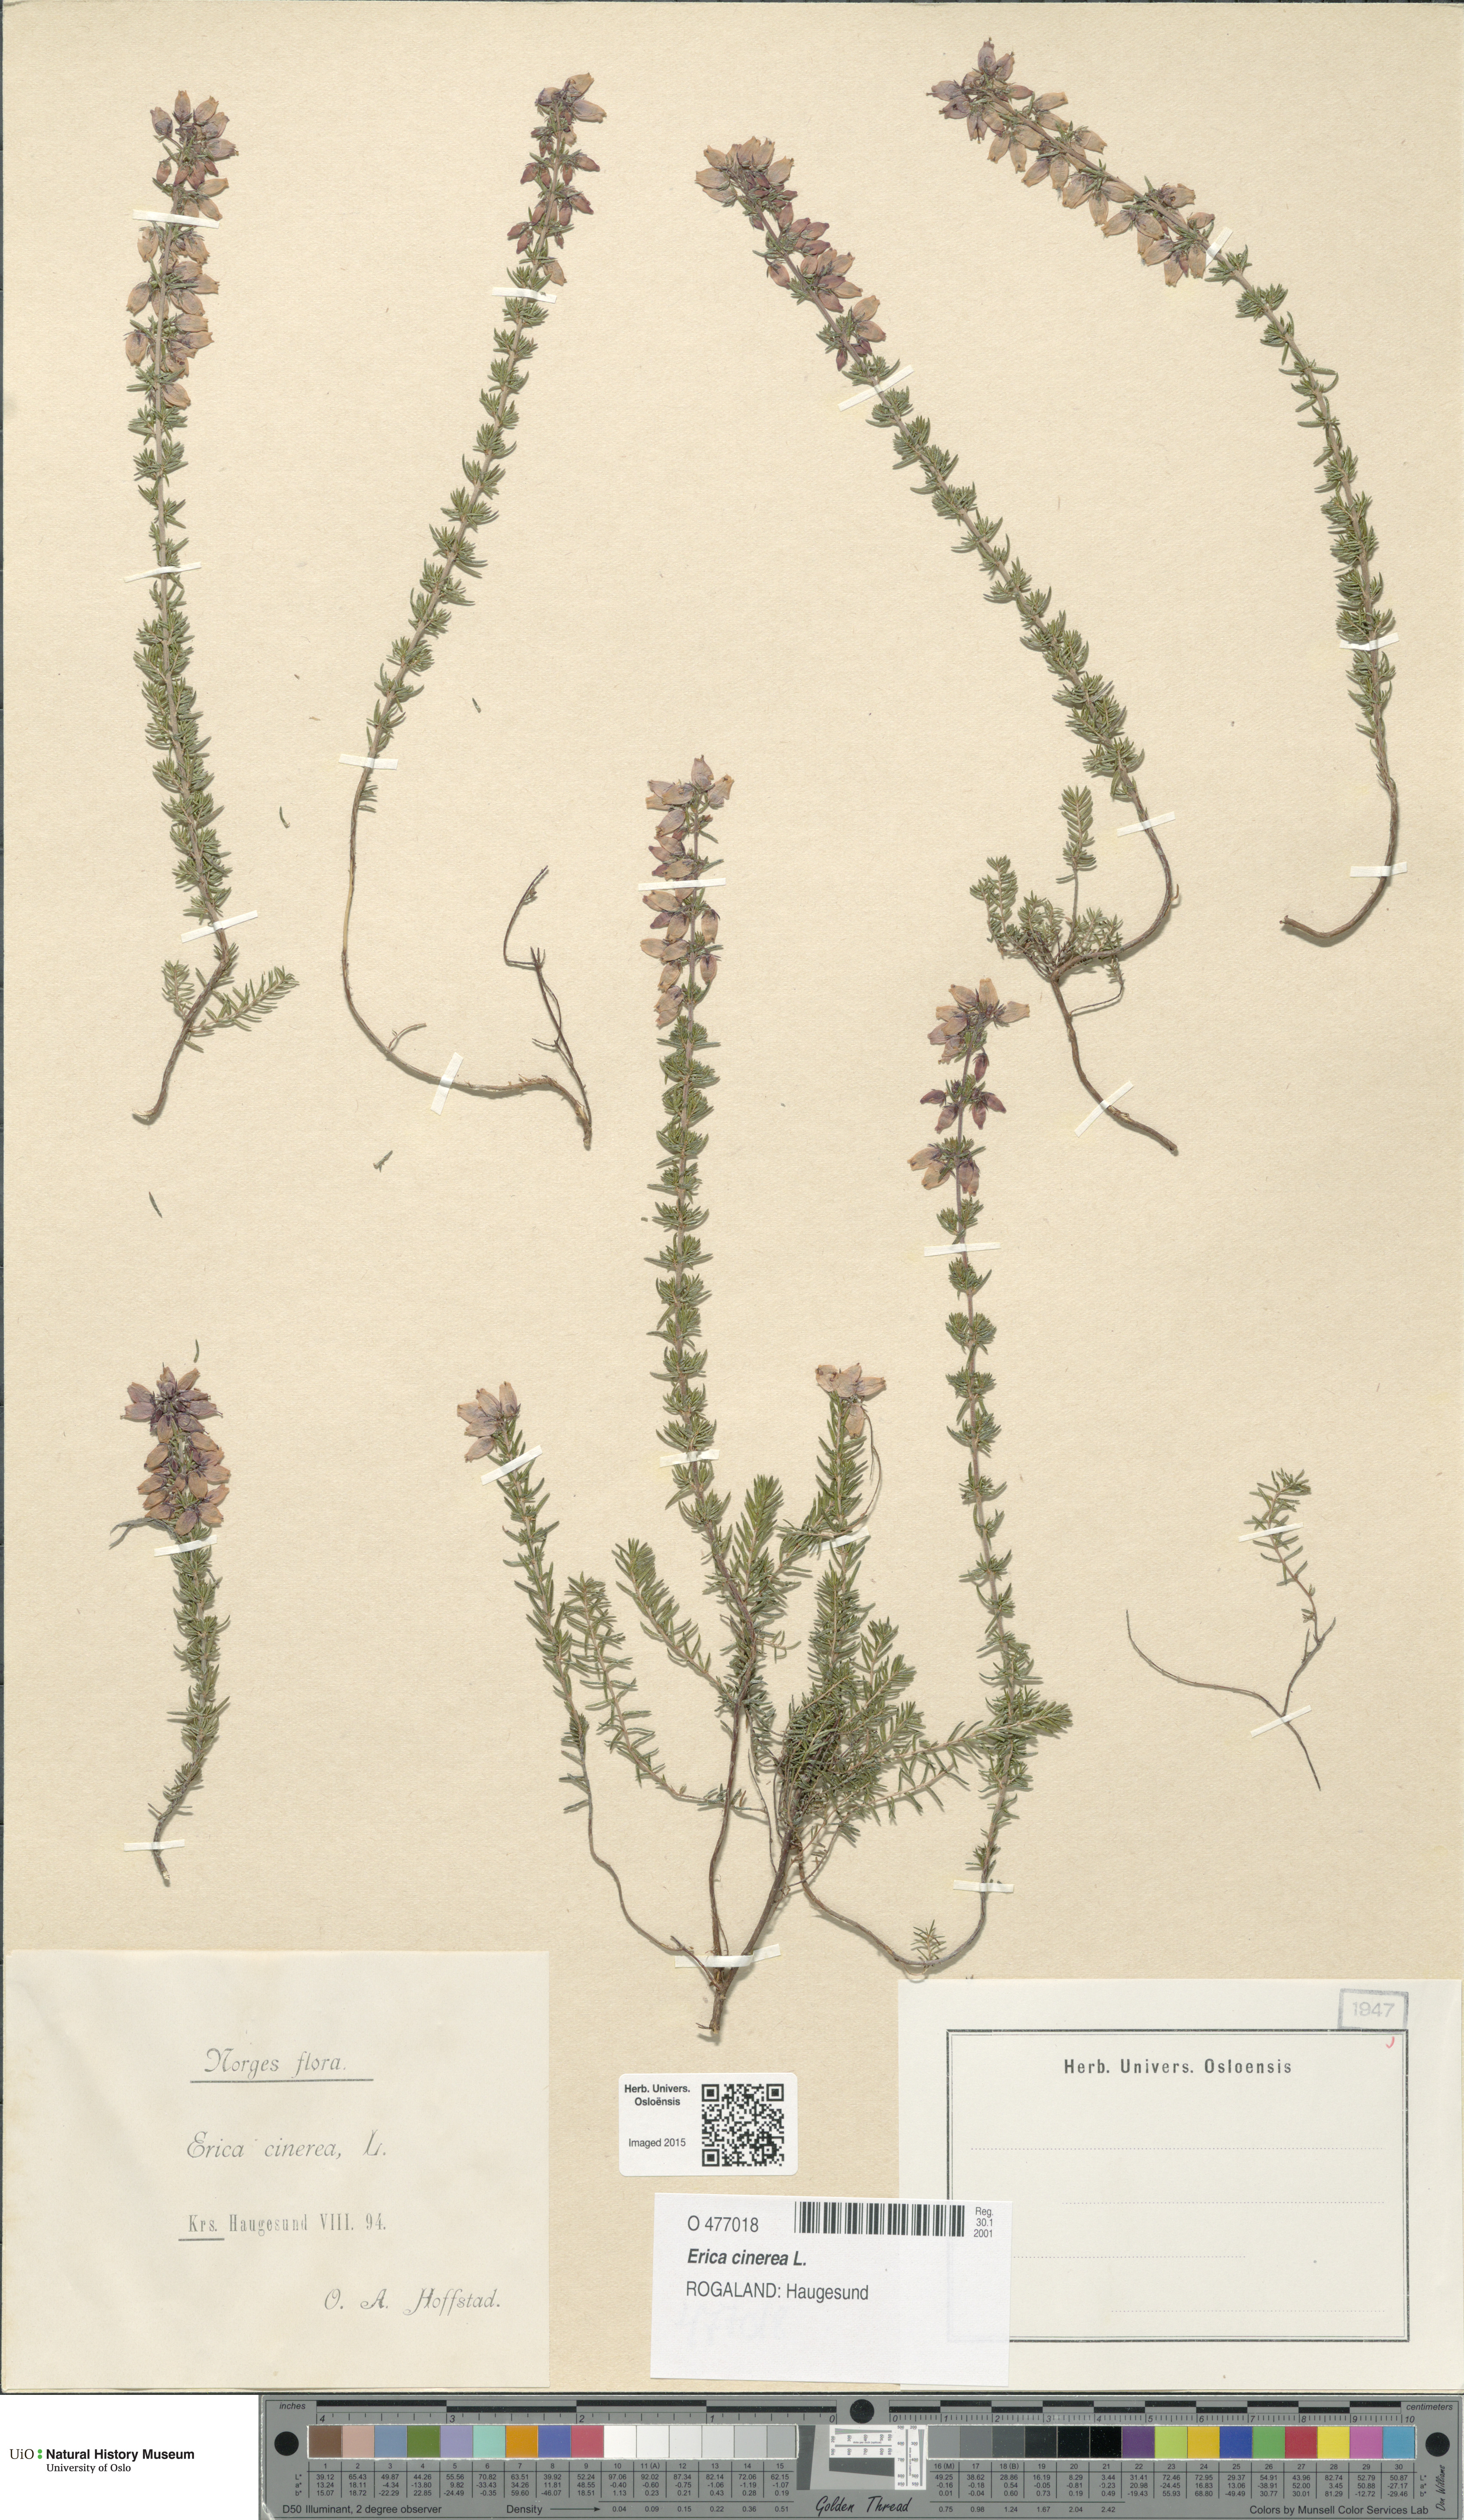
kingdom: Plantae
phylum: Tracheophyta
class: Magnoliopsida
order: Ericales
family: Ericaceae
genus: Erica
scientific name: Erica cinerea
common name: Bell heather
